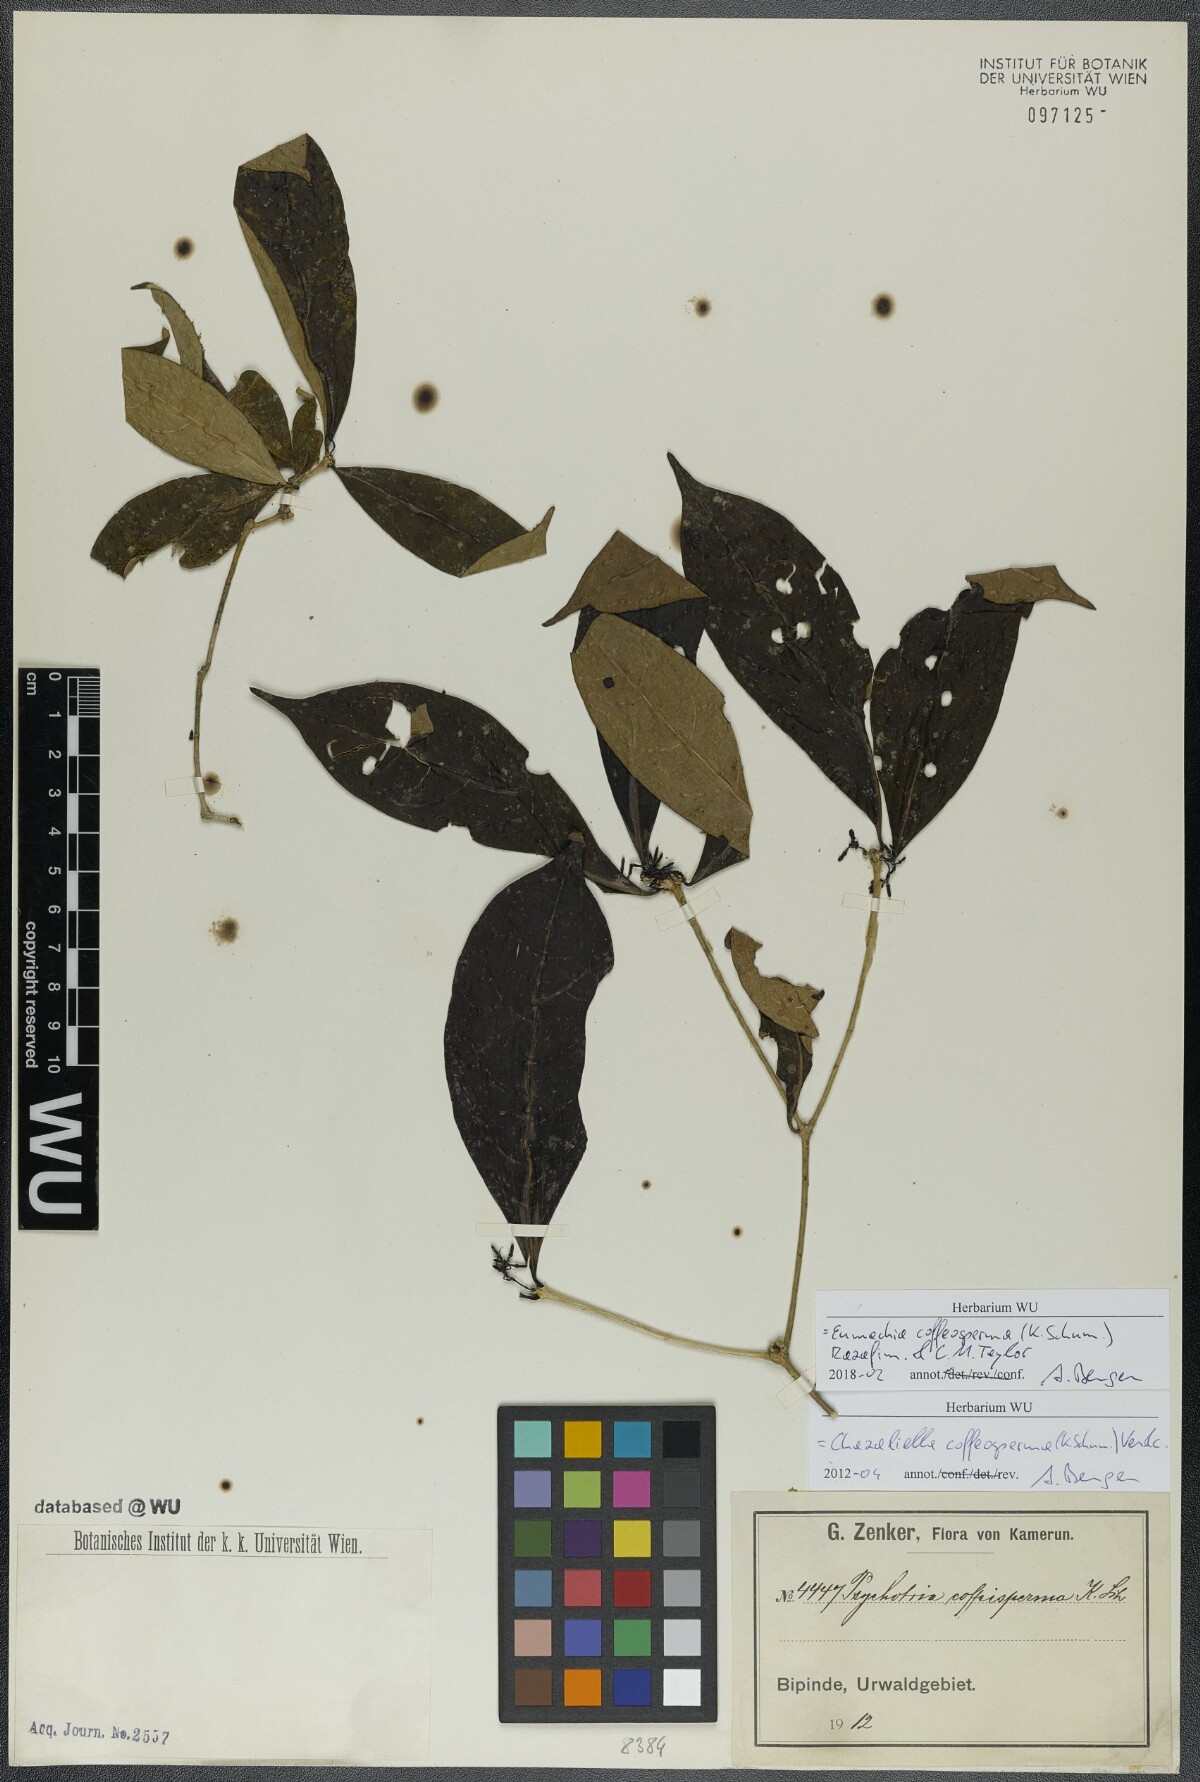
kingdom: Plantae
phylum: Tracheophyta
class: Magnoliopsida
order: Gentianales
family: Rubiaceae
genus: Eumachia
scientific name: Eumachia coffeosperma
